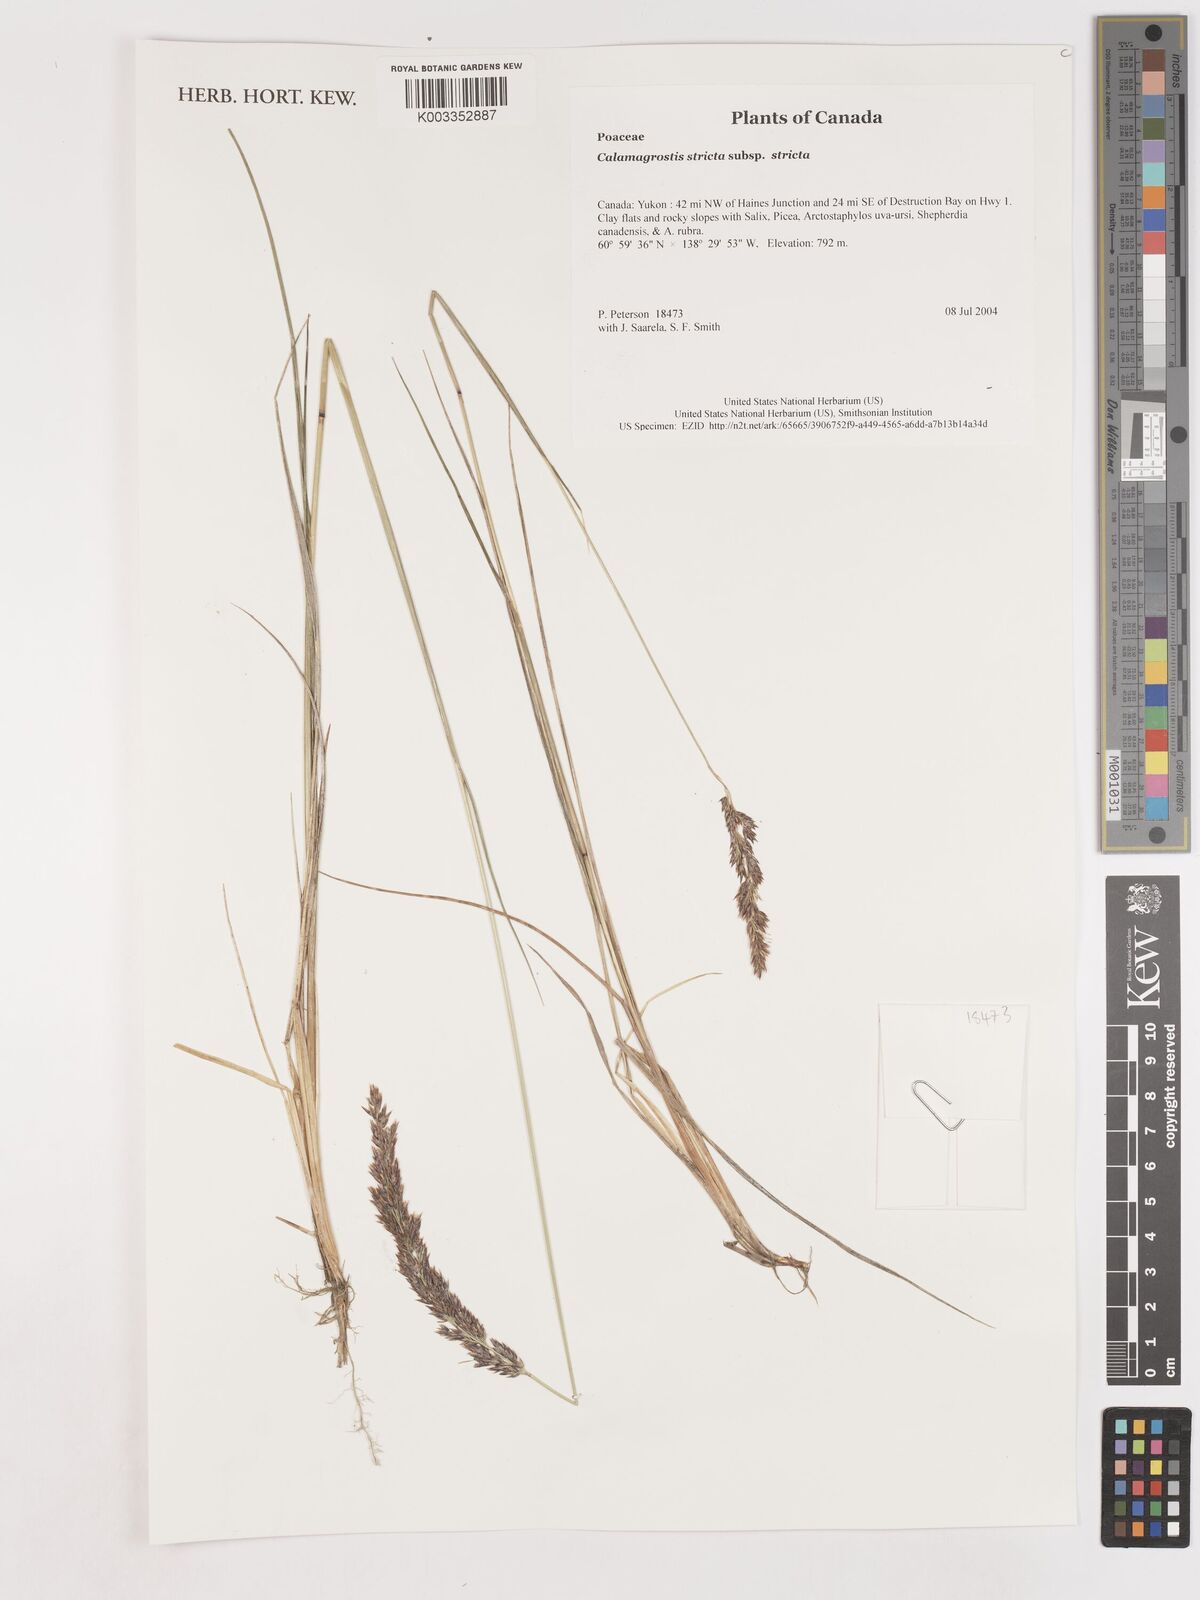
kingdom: Plantae
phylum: Tracheophyta
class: Liliopsida
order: Poales
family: Poaceae
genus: Calamagrostis
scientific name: Calamagrostis stricta
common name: Narrow small-reed
